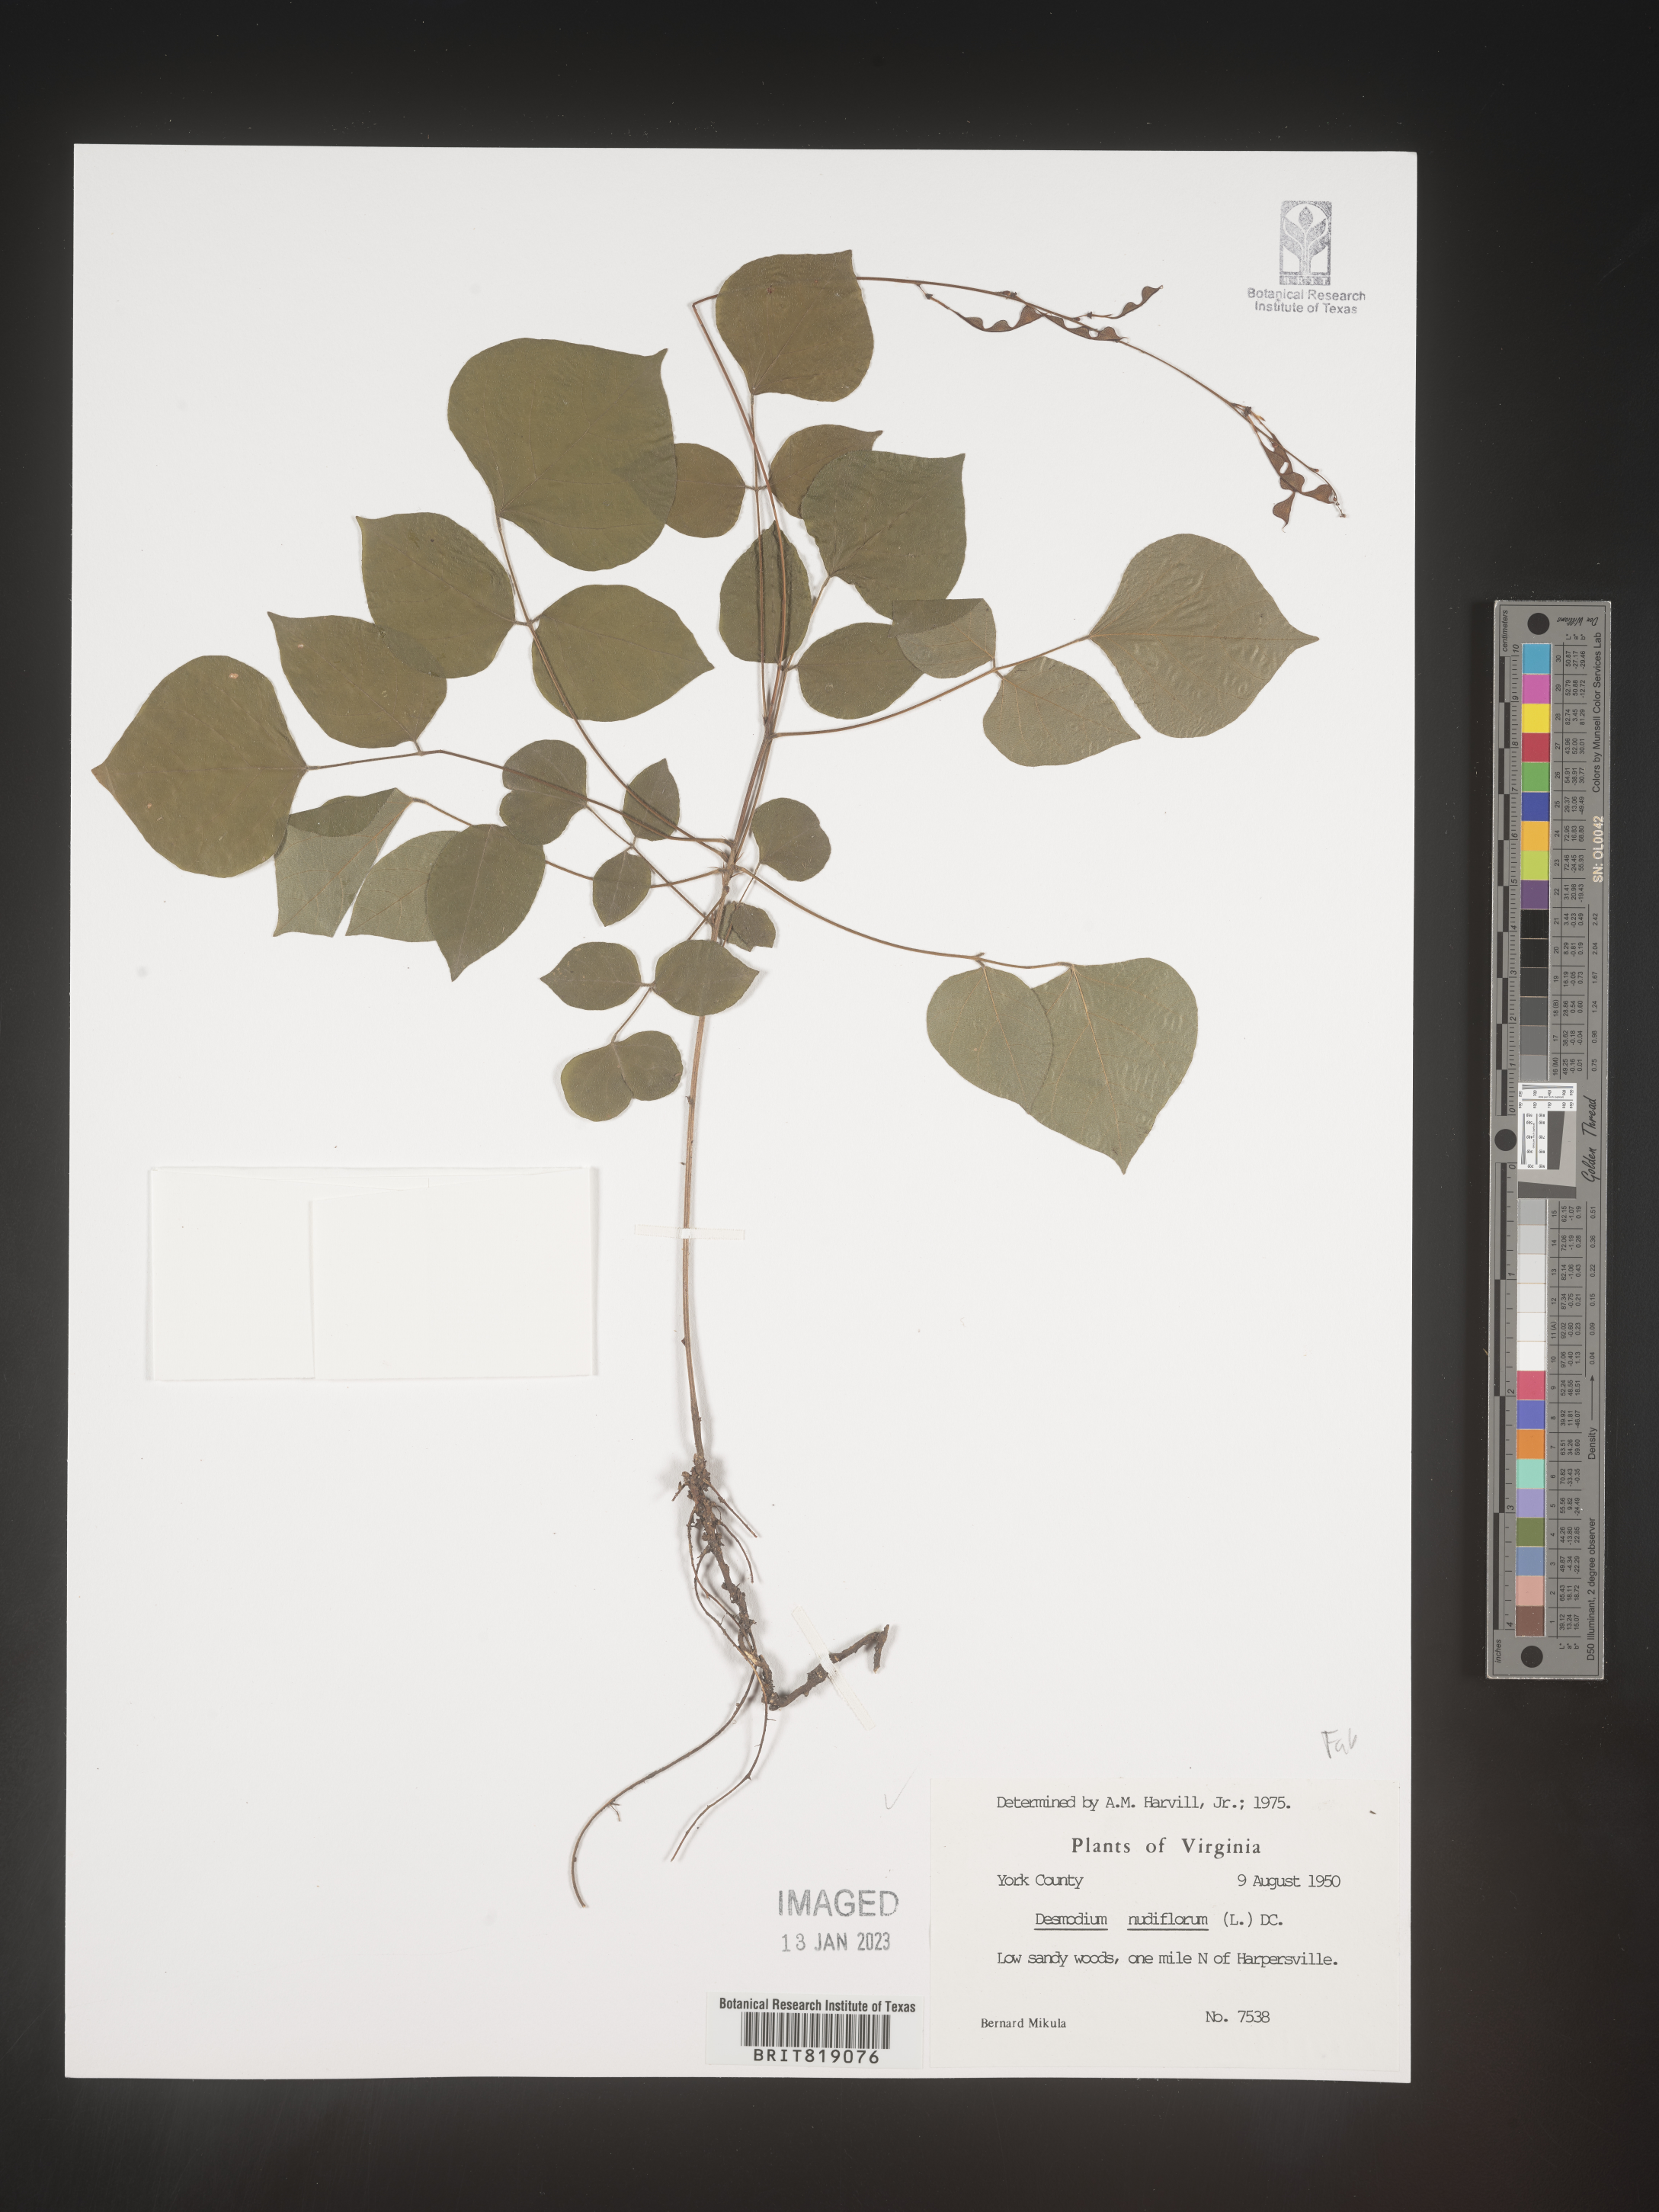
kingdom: Plantae
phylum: Tracheophyta
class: Magnoliopsida
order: Fabales
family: Fabaceae
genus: Hylodesmum
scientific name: Hylodesmum nudiflorum
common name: Bare-stemmed tick-trefoil
